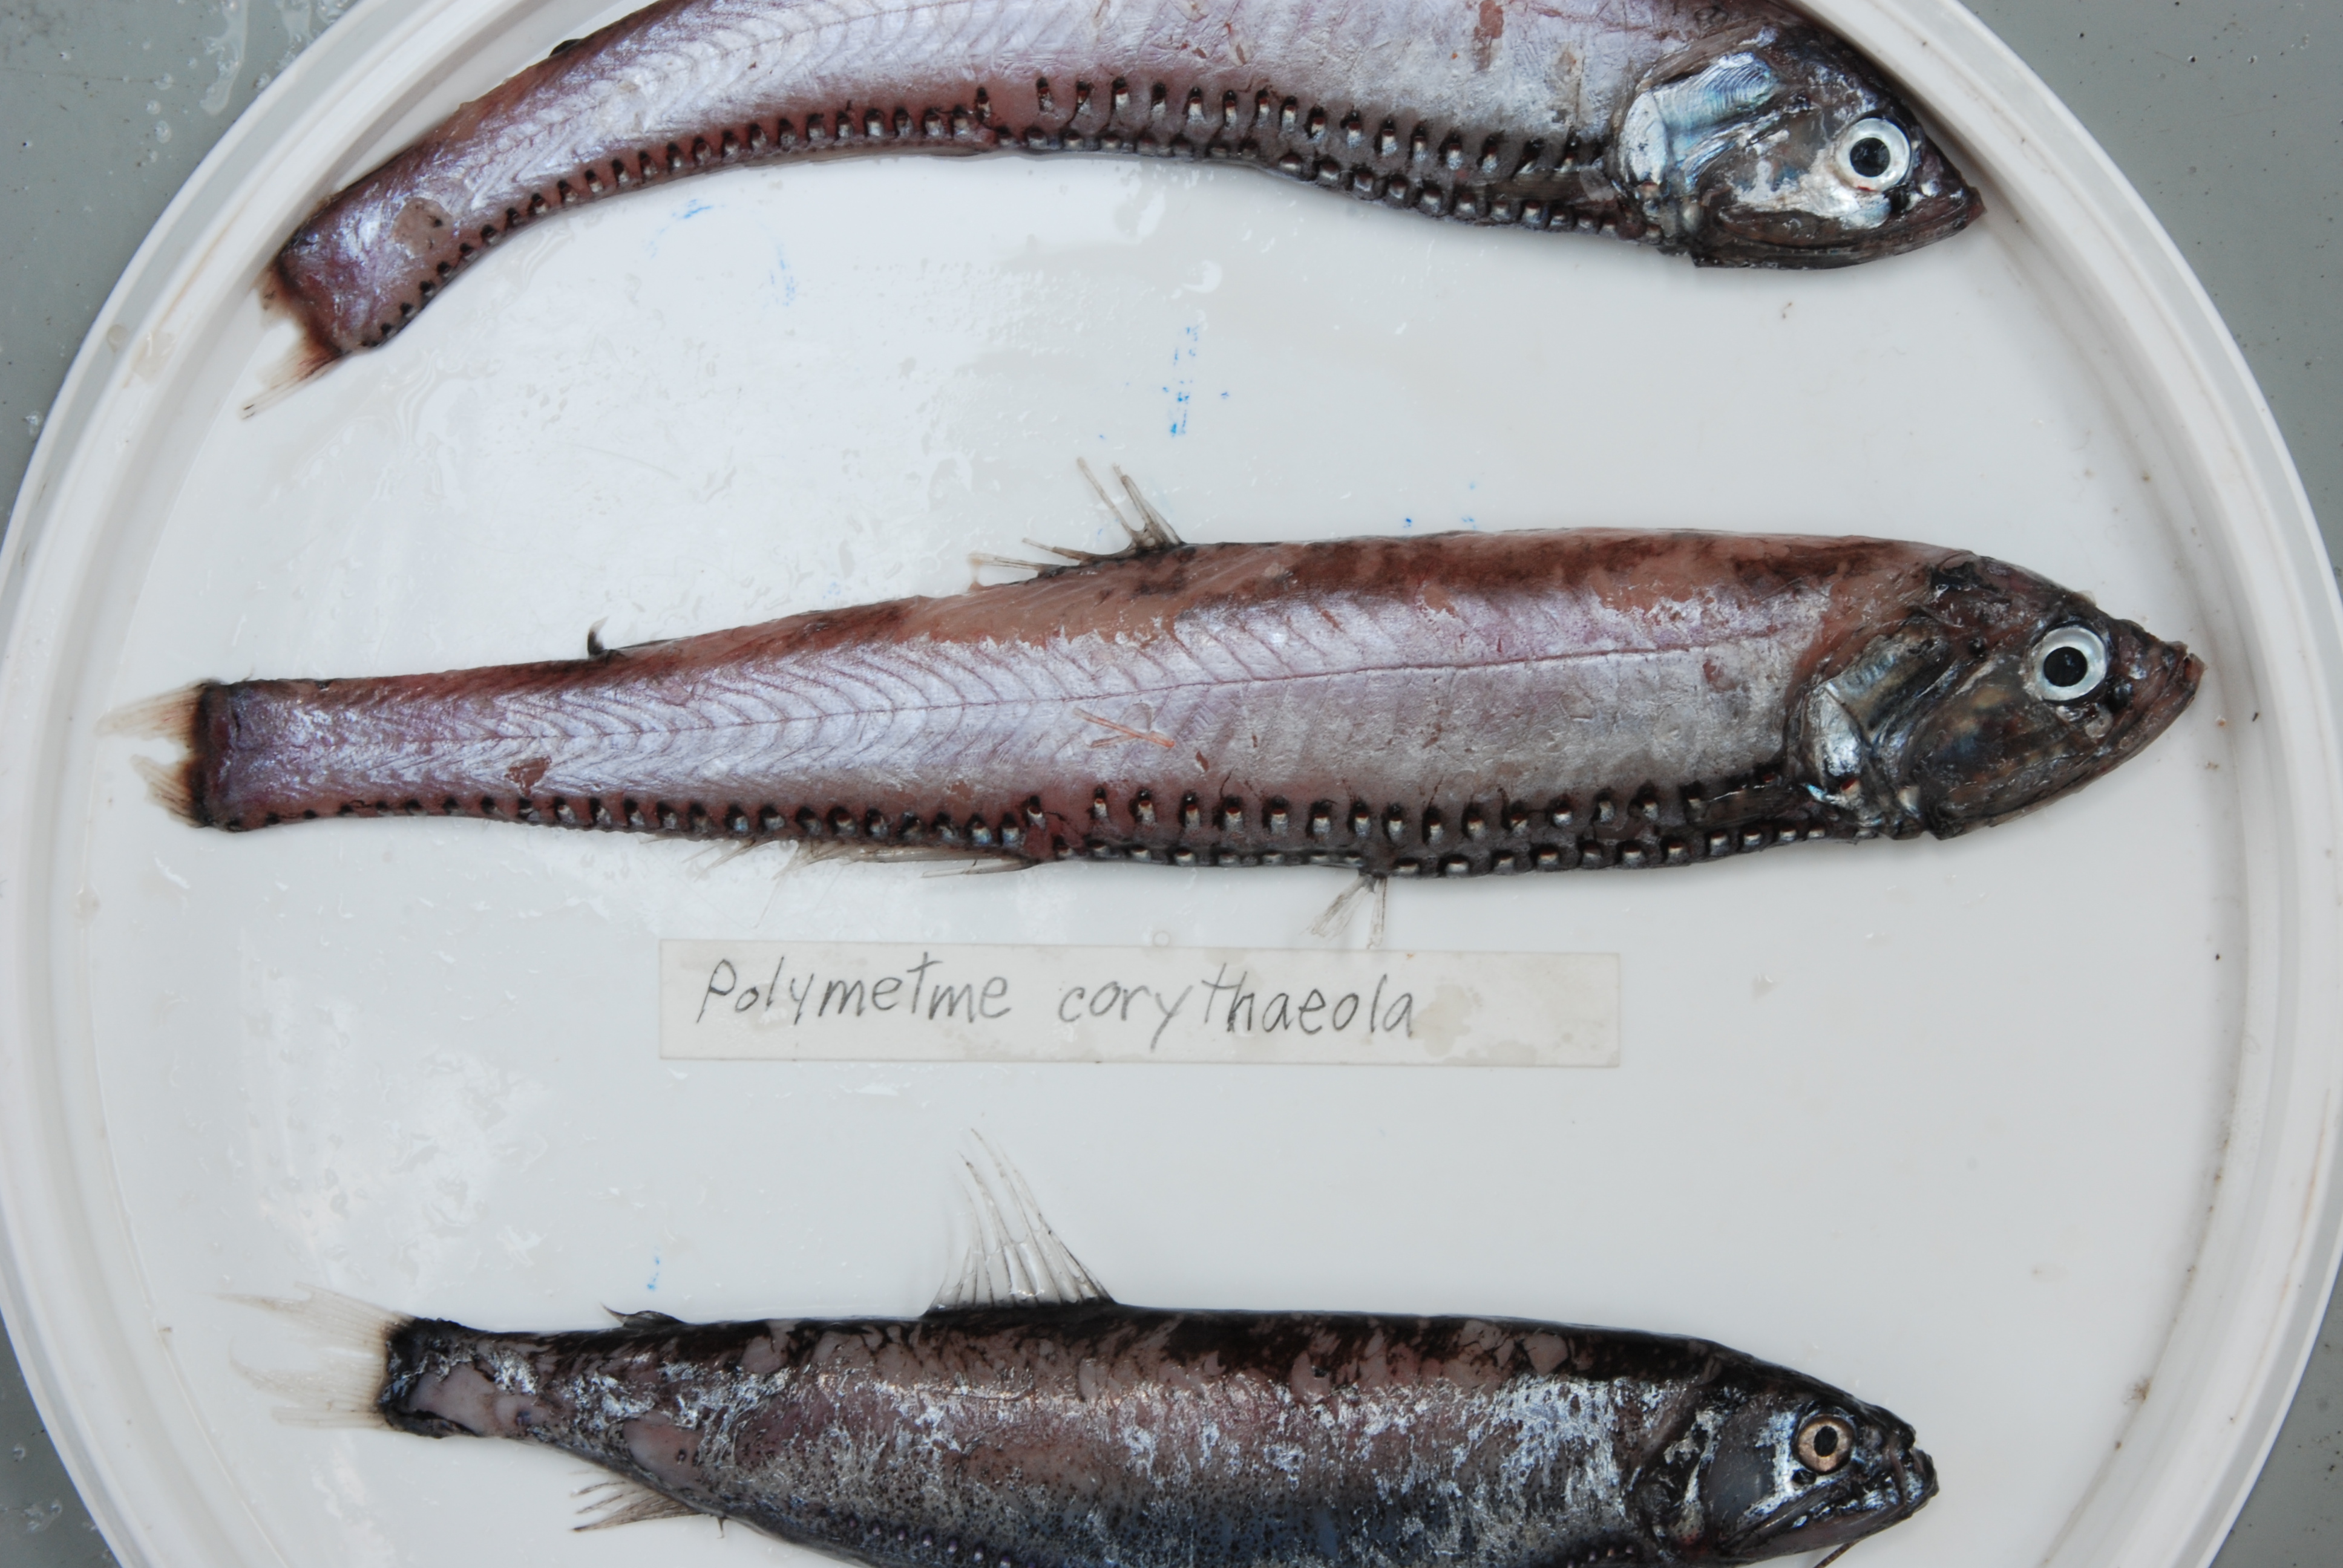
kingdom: Animalia
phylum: Chordata
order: Stomiiformes
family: Phosichthyidae
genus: Polymetme
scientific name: Polymetme corythaeola
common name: Rendezvous fish
